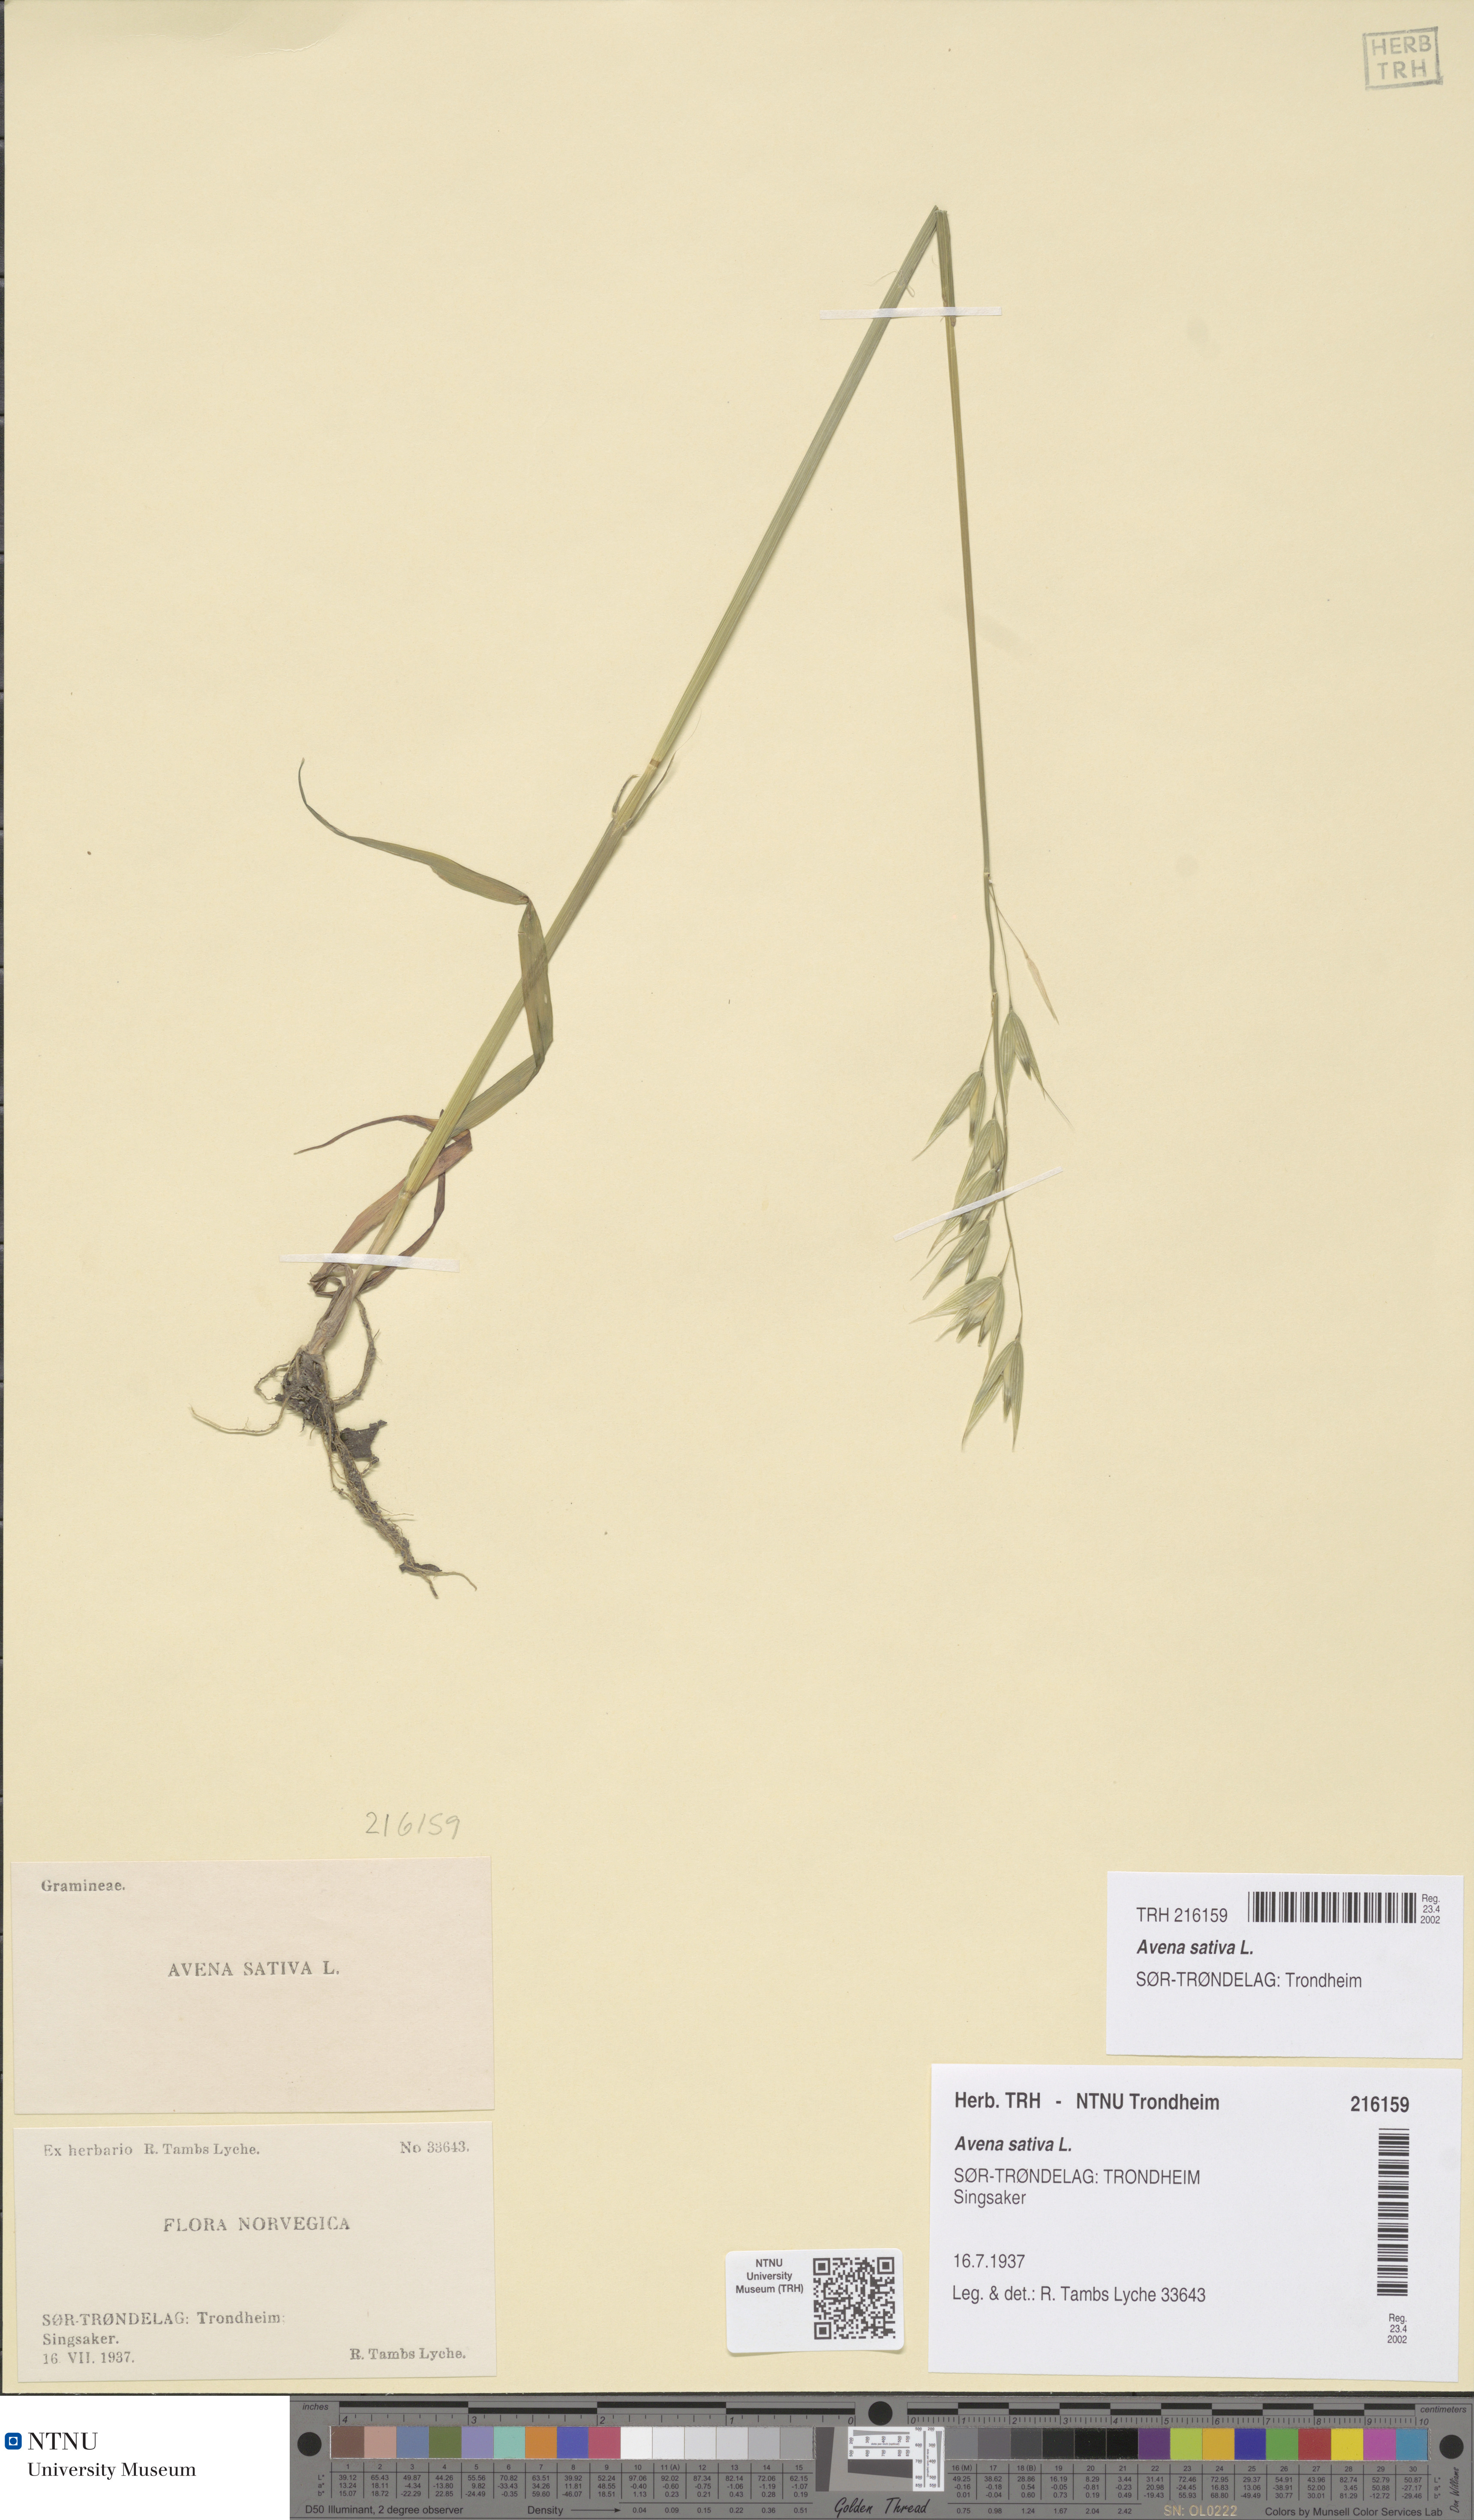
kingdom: Plantae
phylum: Tracheophyta
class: Liliopsida
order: Poales
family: Poaceae
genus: Avena
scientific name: Avena sativa
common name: Oat
